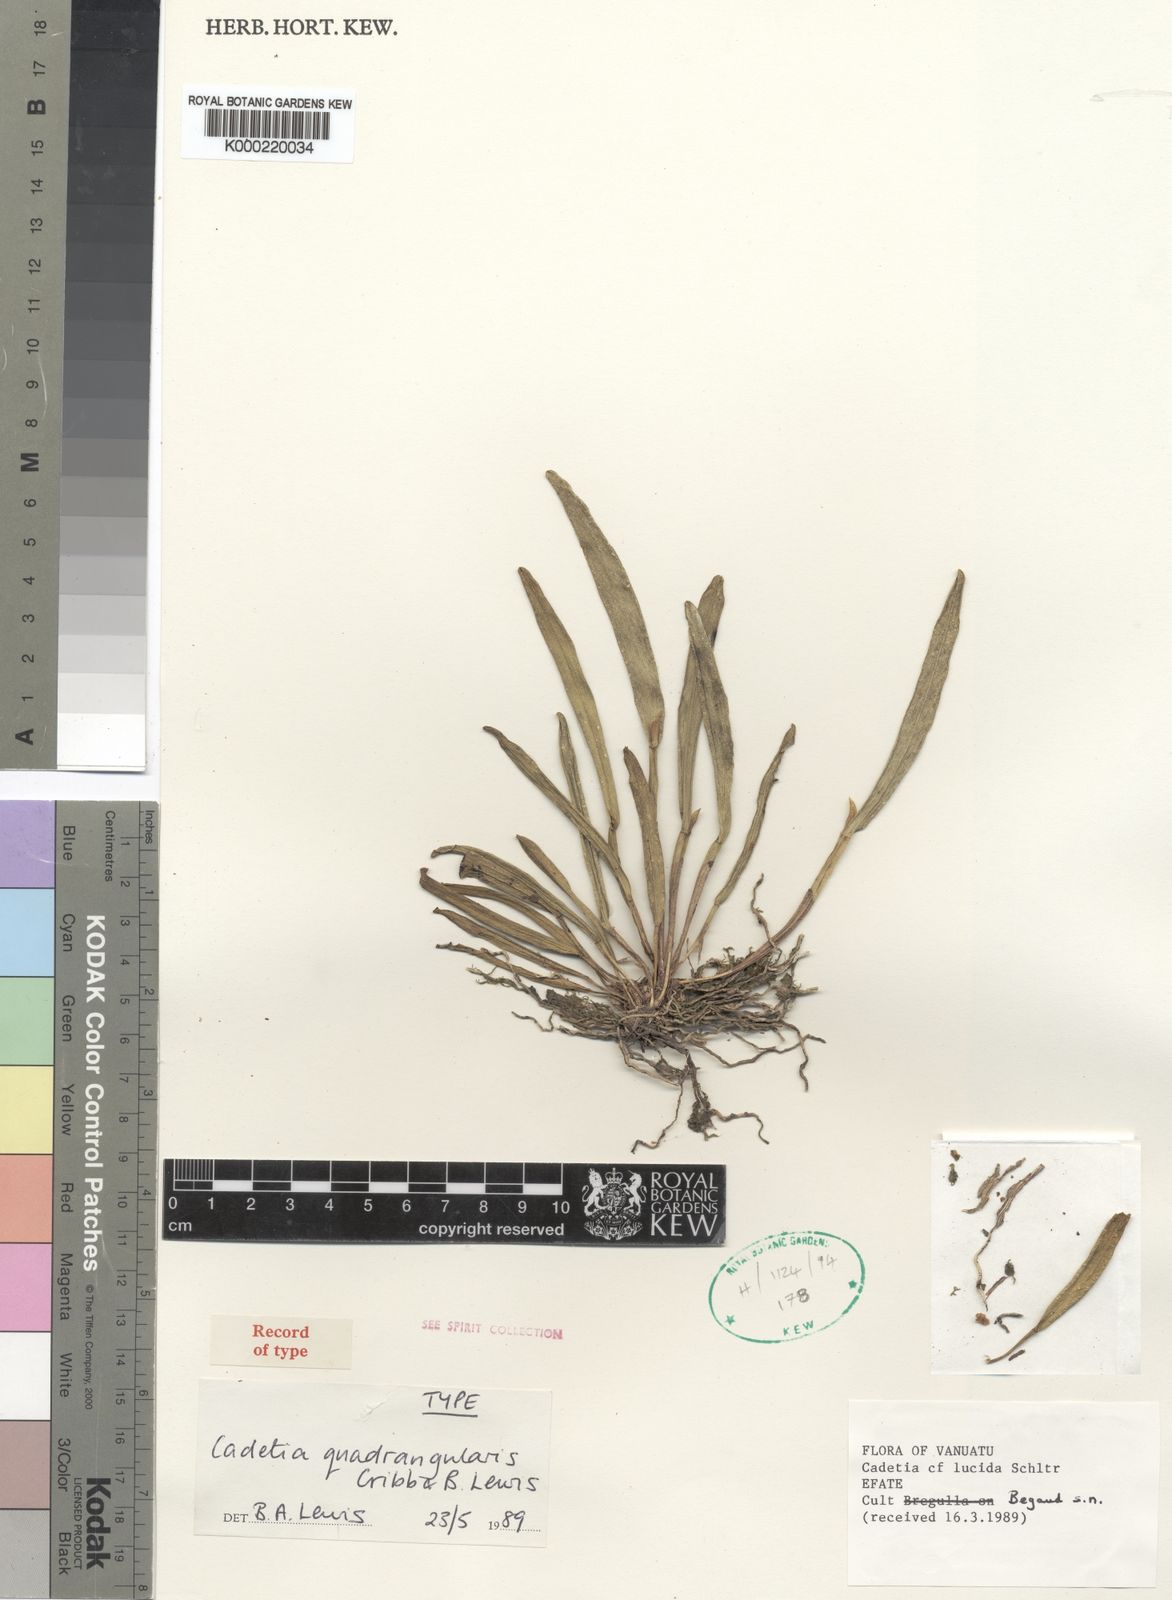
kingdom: Plantae
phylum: Tracheophyta
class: Liliopsida
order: Asparagales
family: Orchidaceae
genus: Dendrobium
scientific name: Dendrobium vanuatuense
